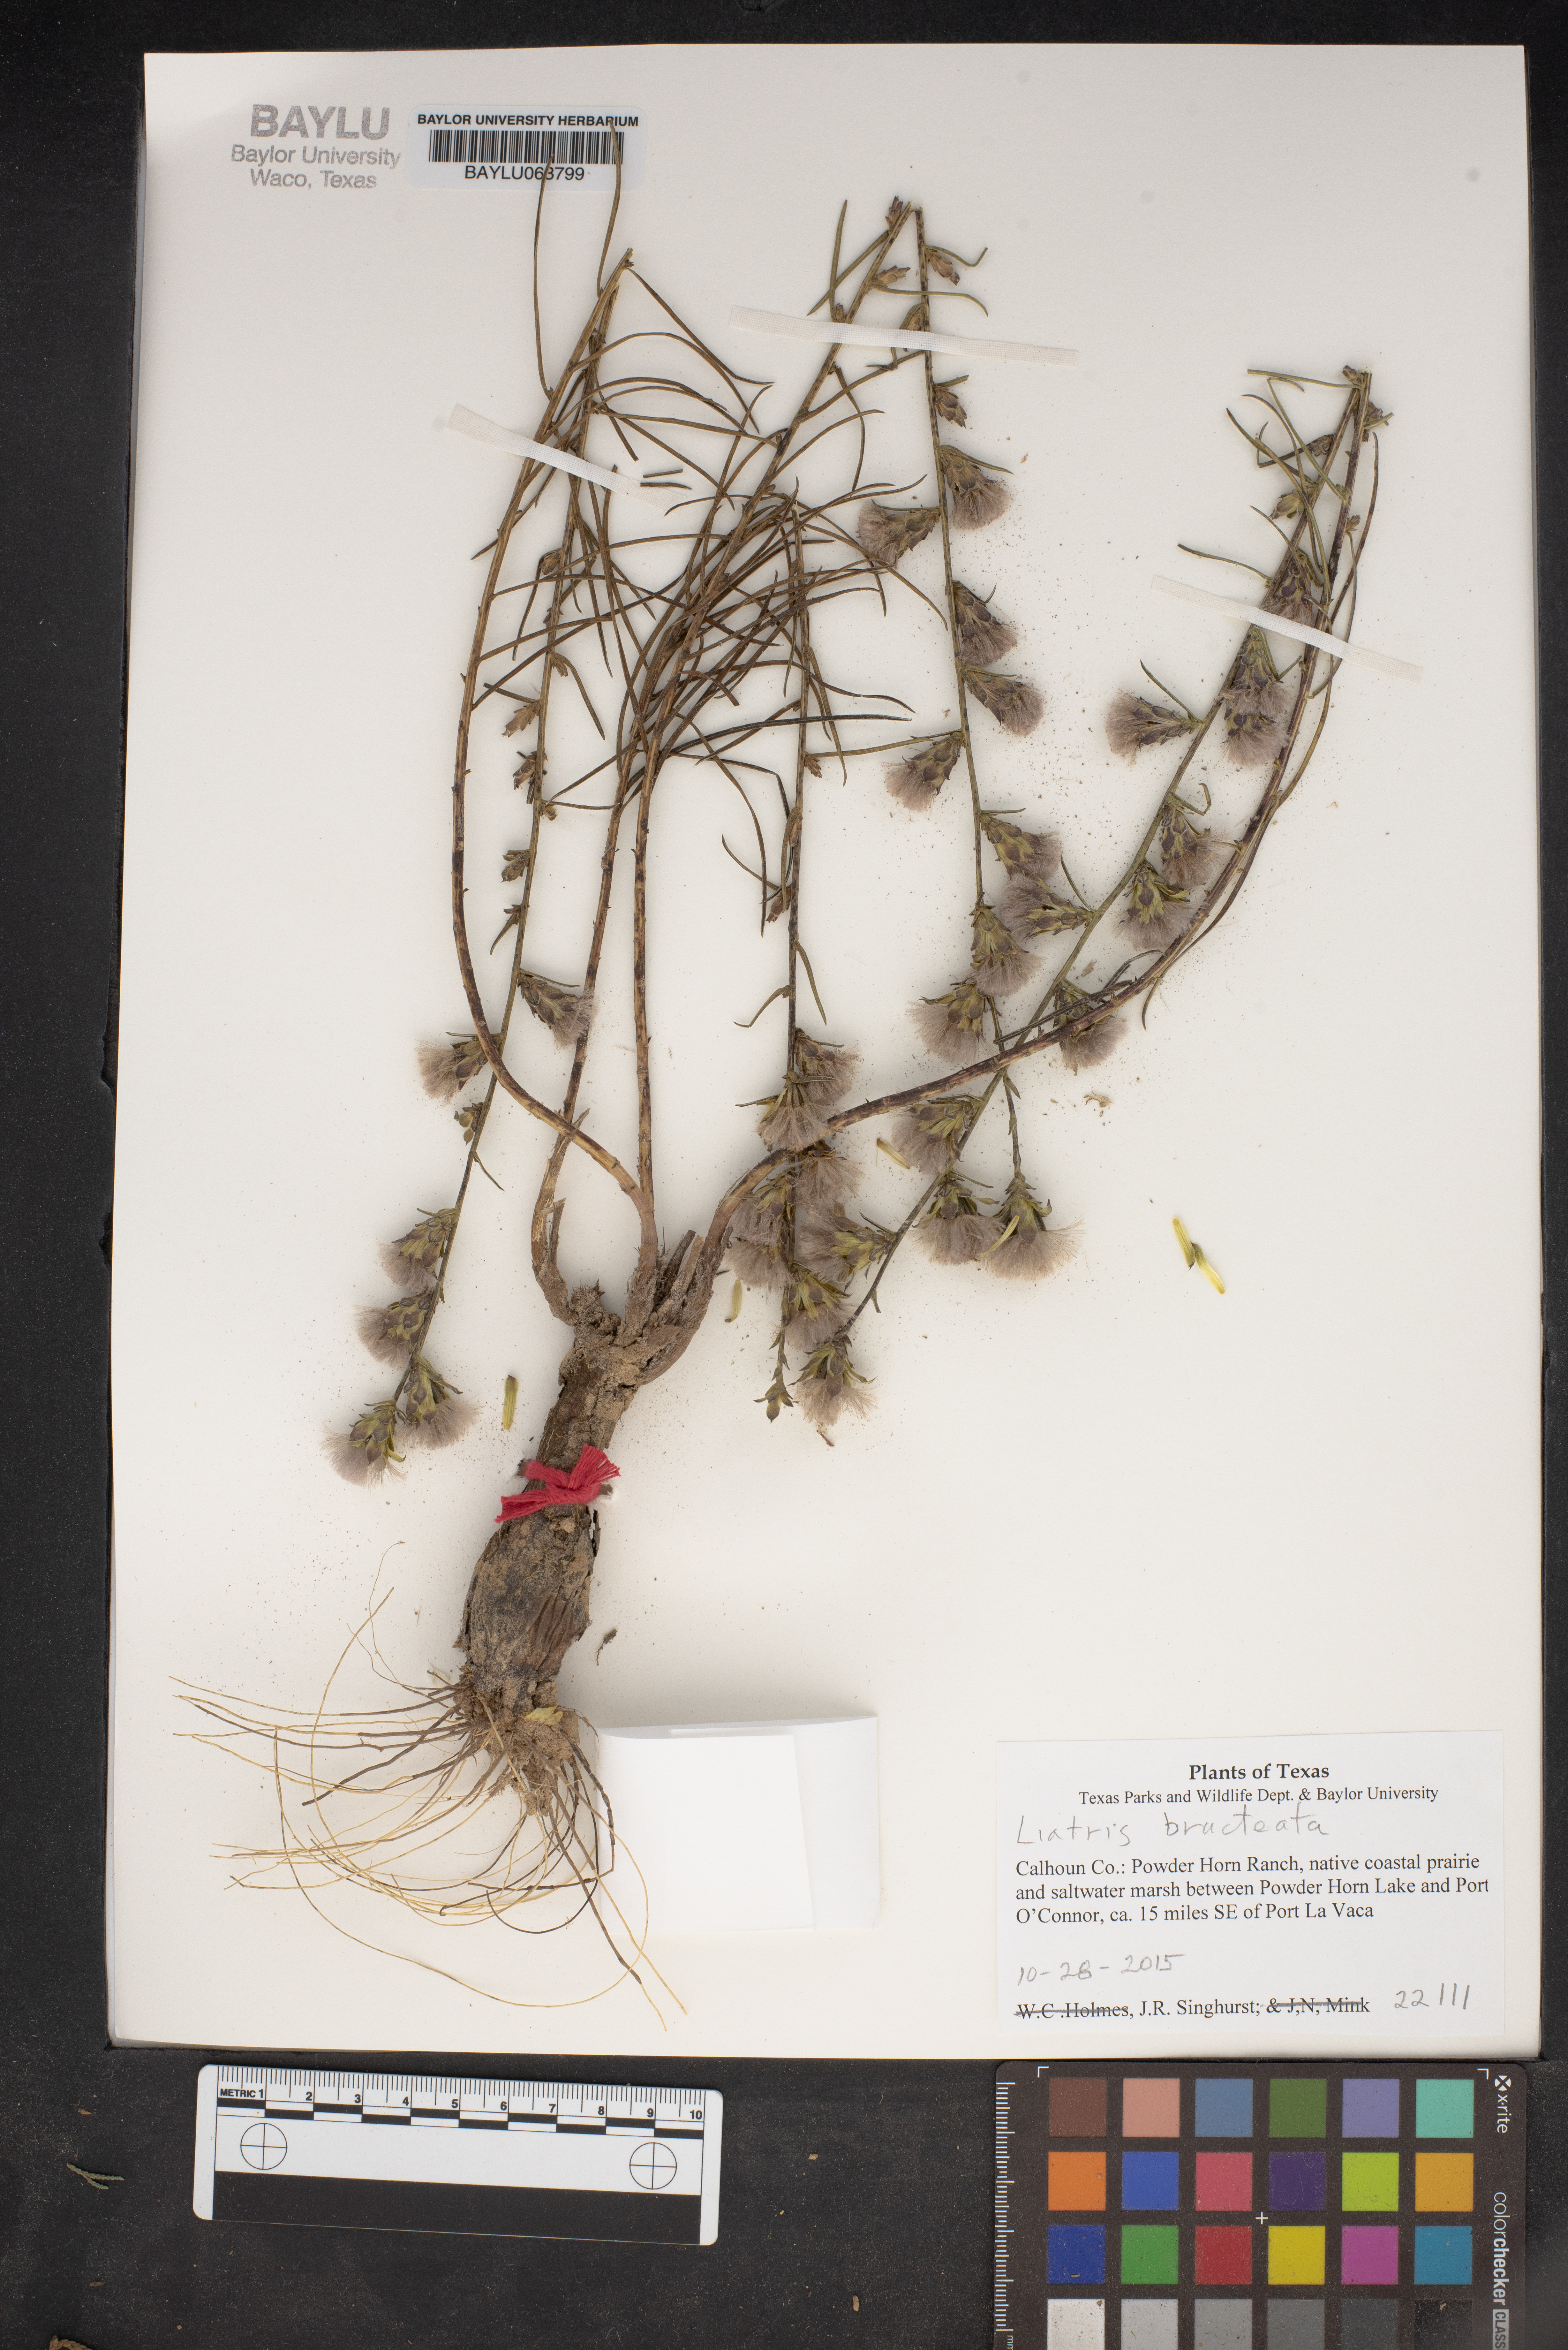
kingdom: Plantae
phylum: Tracheophyta
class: Magnoliopsida
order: Asterales
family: Asteraceae
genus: Liatris
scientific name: Liatris bracteata
